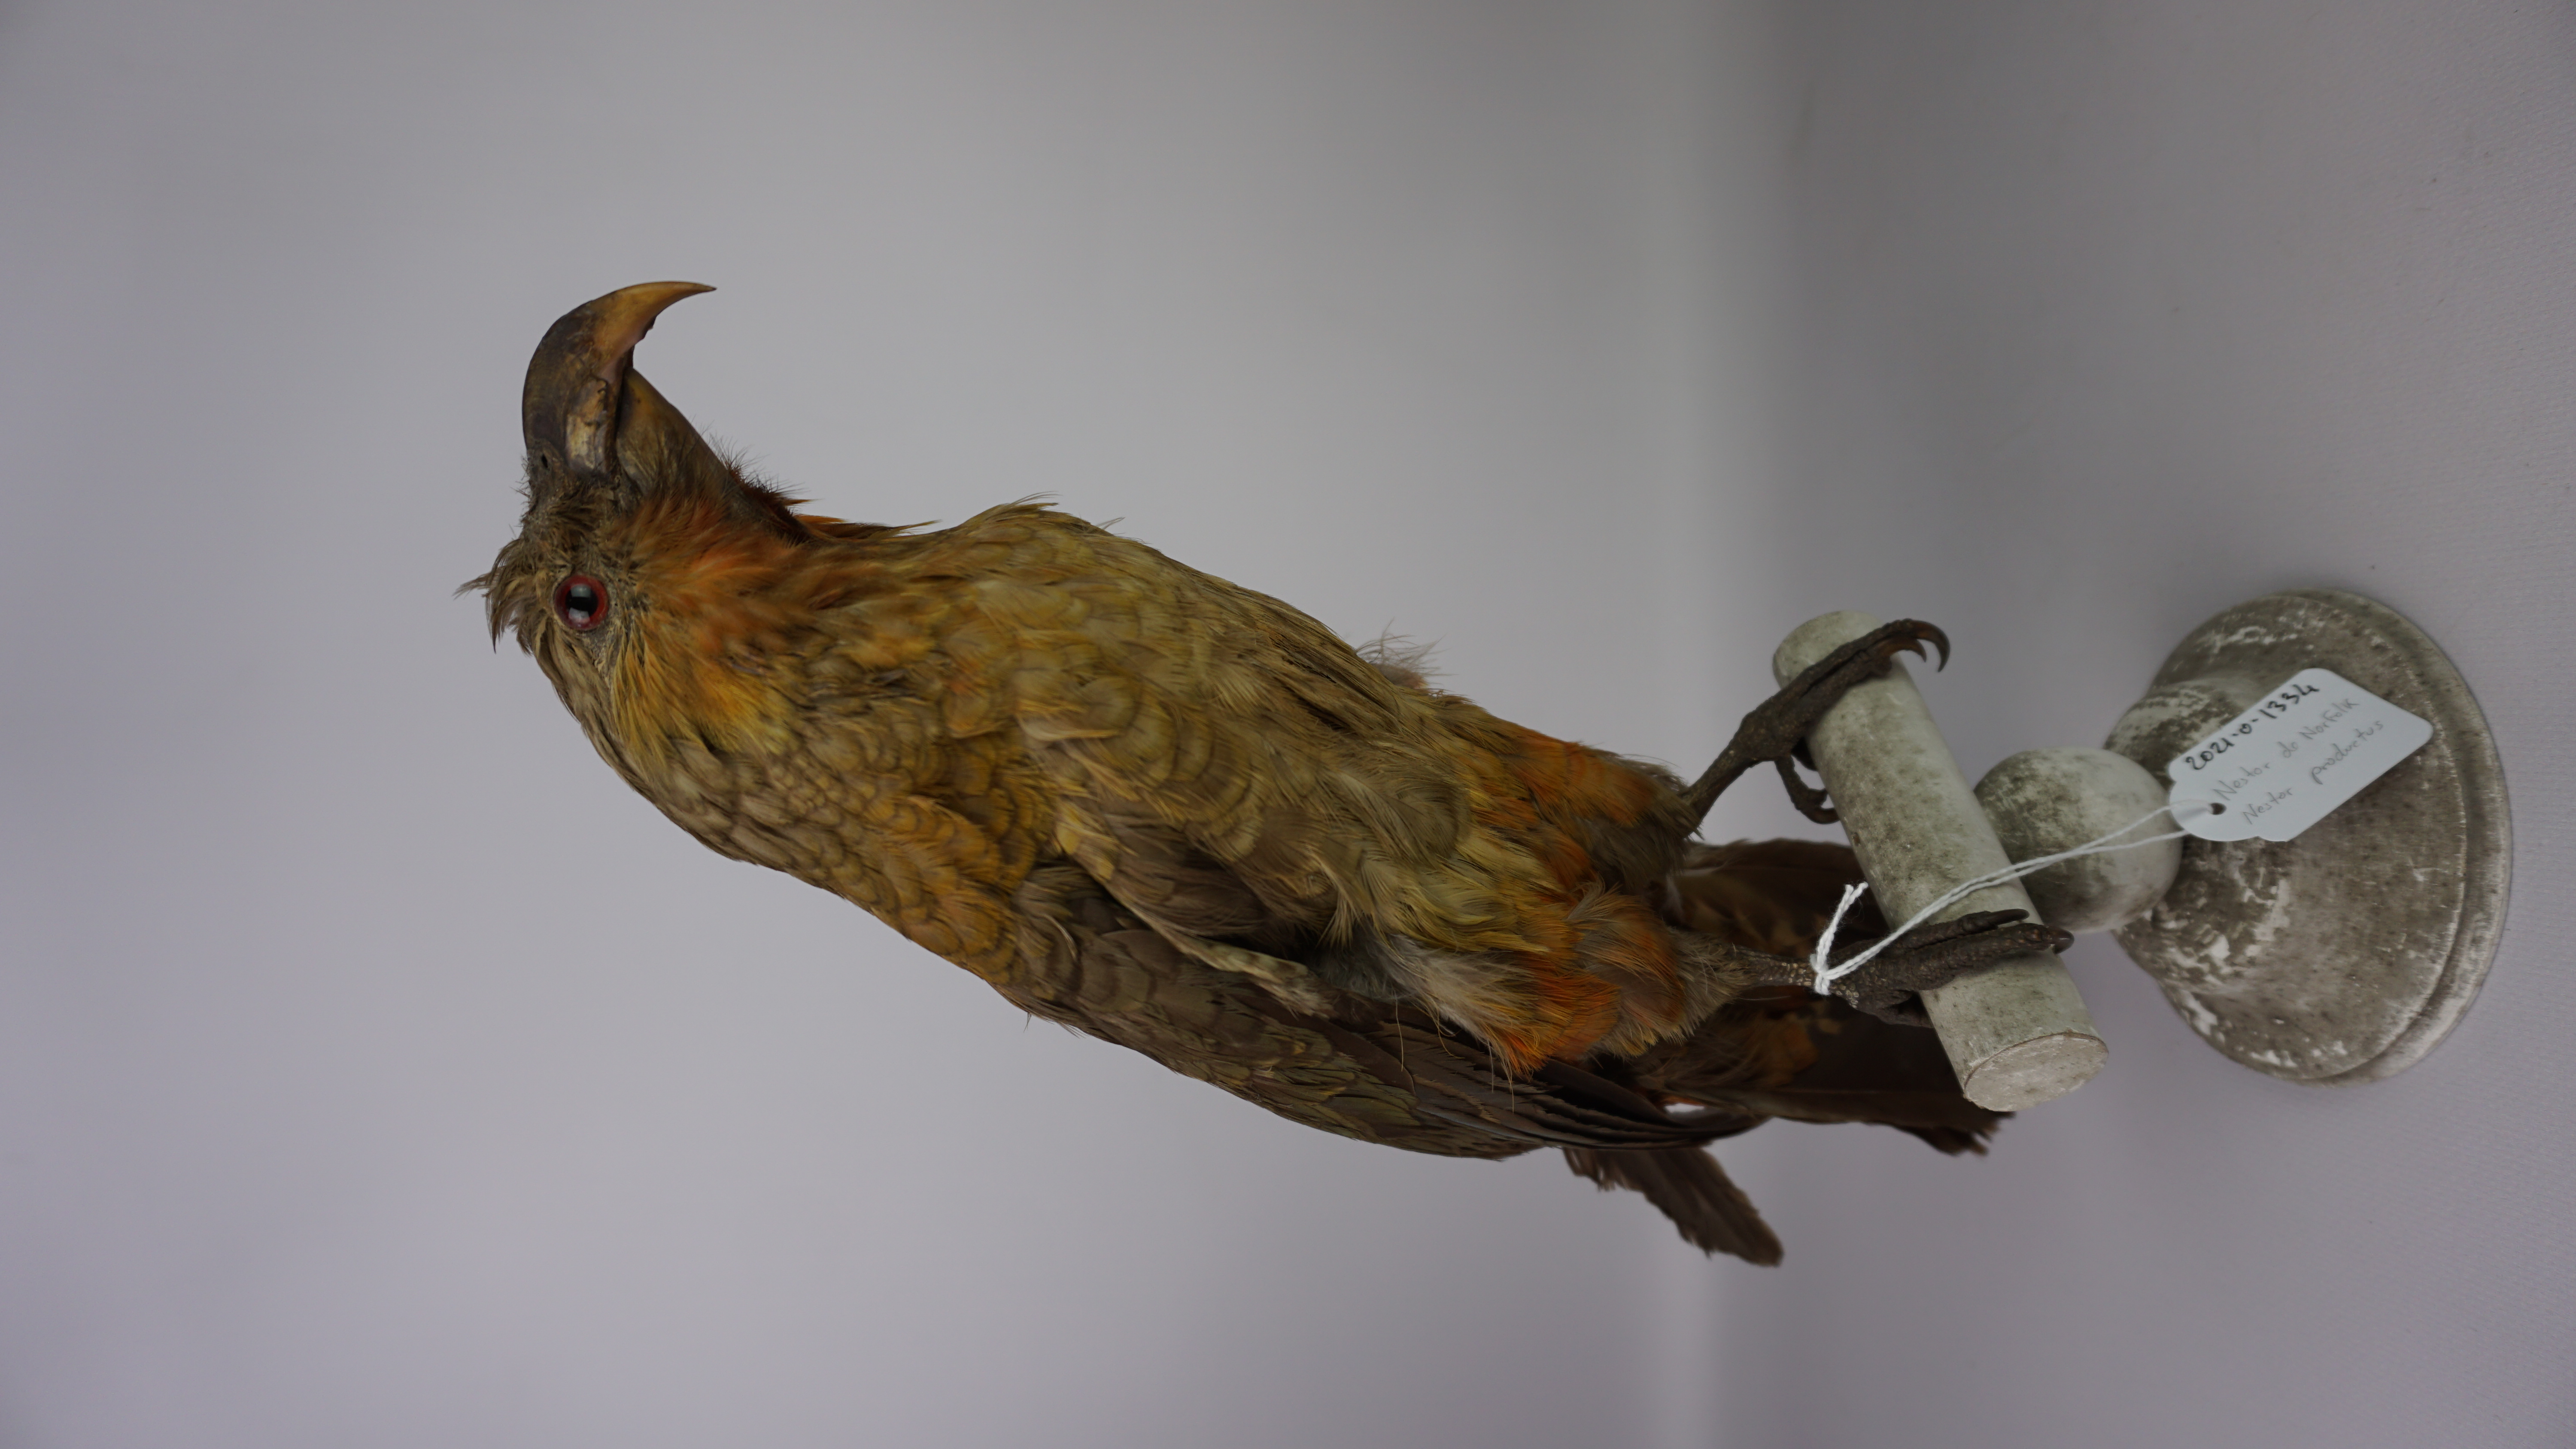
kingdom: Animalia
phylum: Chordata
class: Aves
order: Psittaciformes
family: Psittacidae
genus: Nestor
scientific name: Nestor productus
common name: Norfolk kaka
